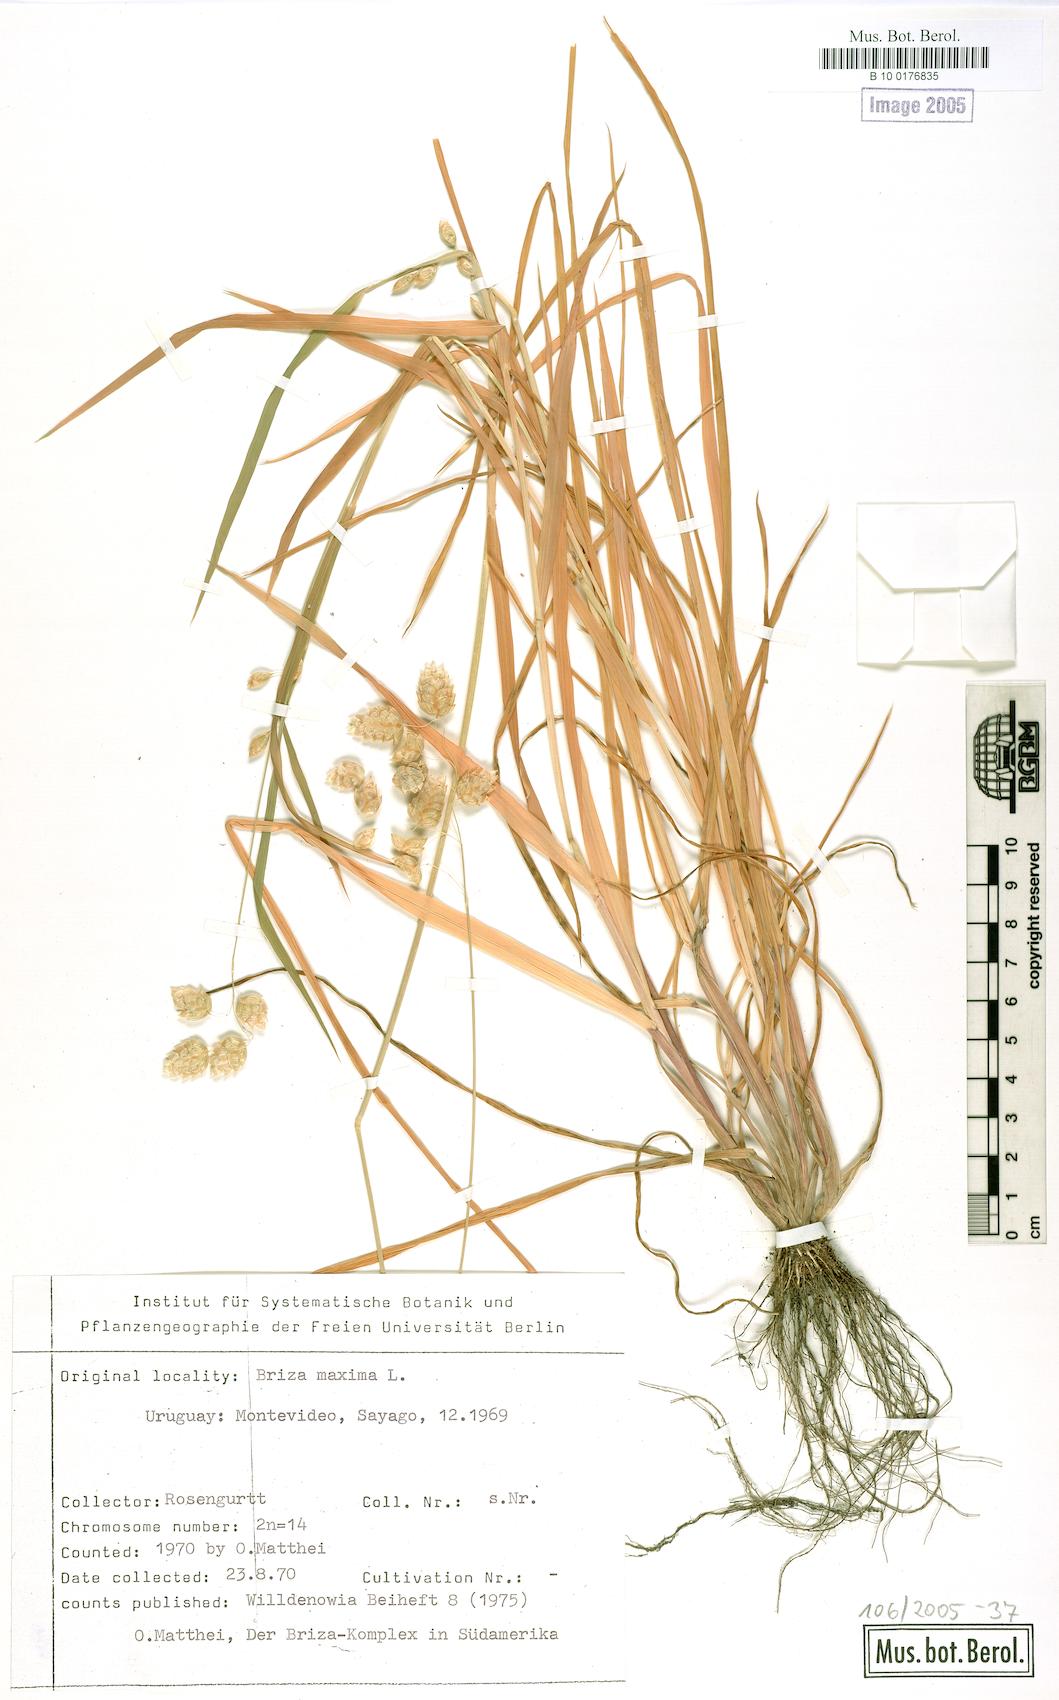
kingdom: Plantae
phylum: Tracheophyta
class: Liliopsida
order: Poales
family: Poaceae
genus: Briza
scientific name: Briza maxima
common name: Big quakinggrass
